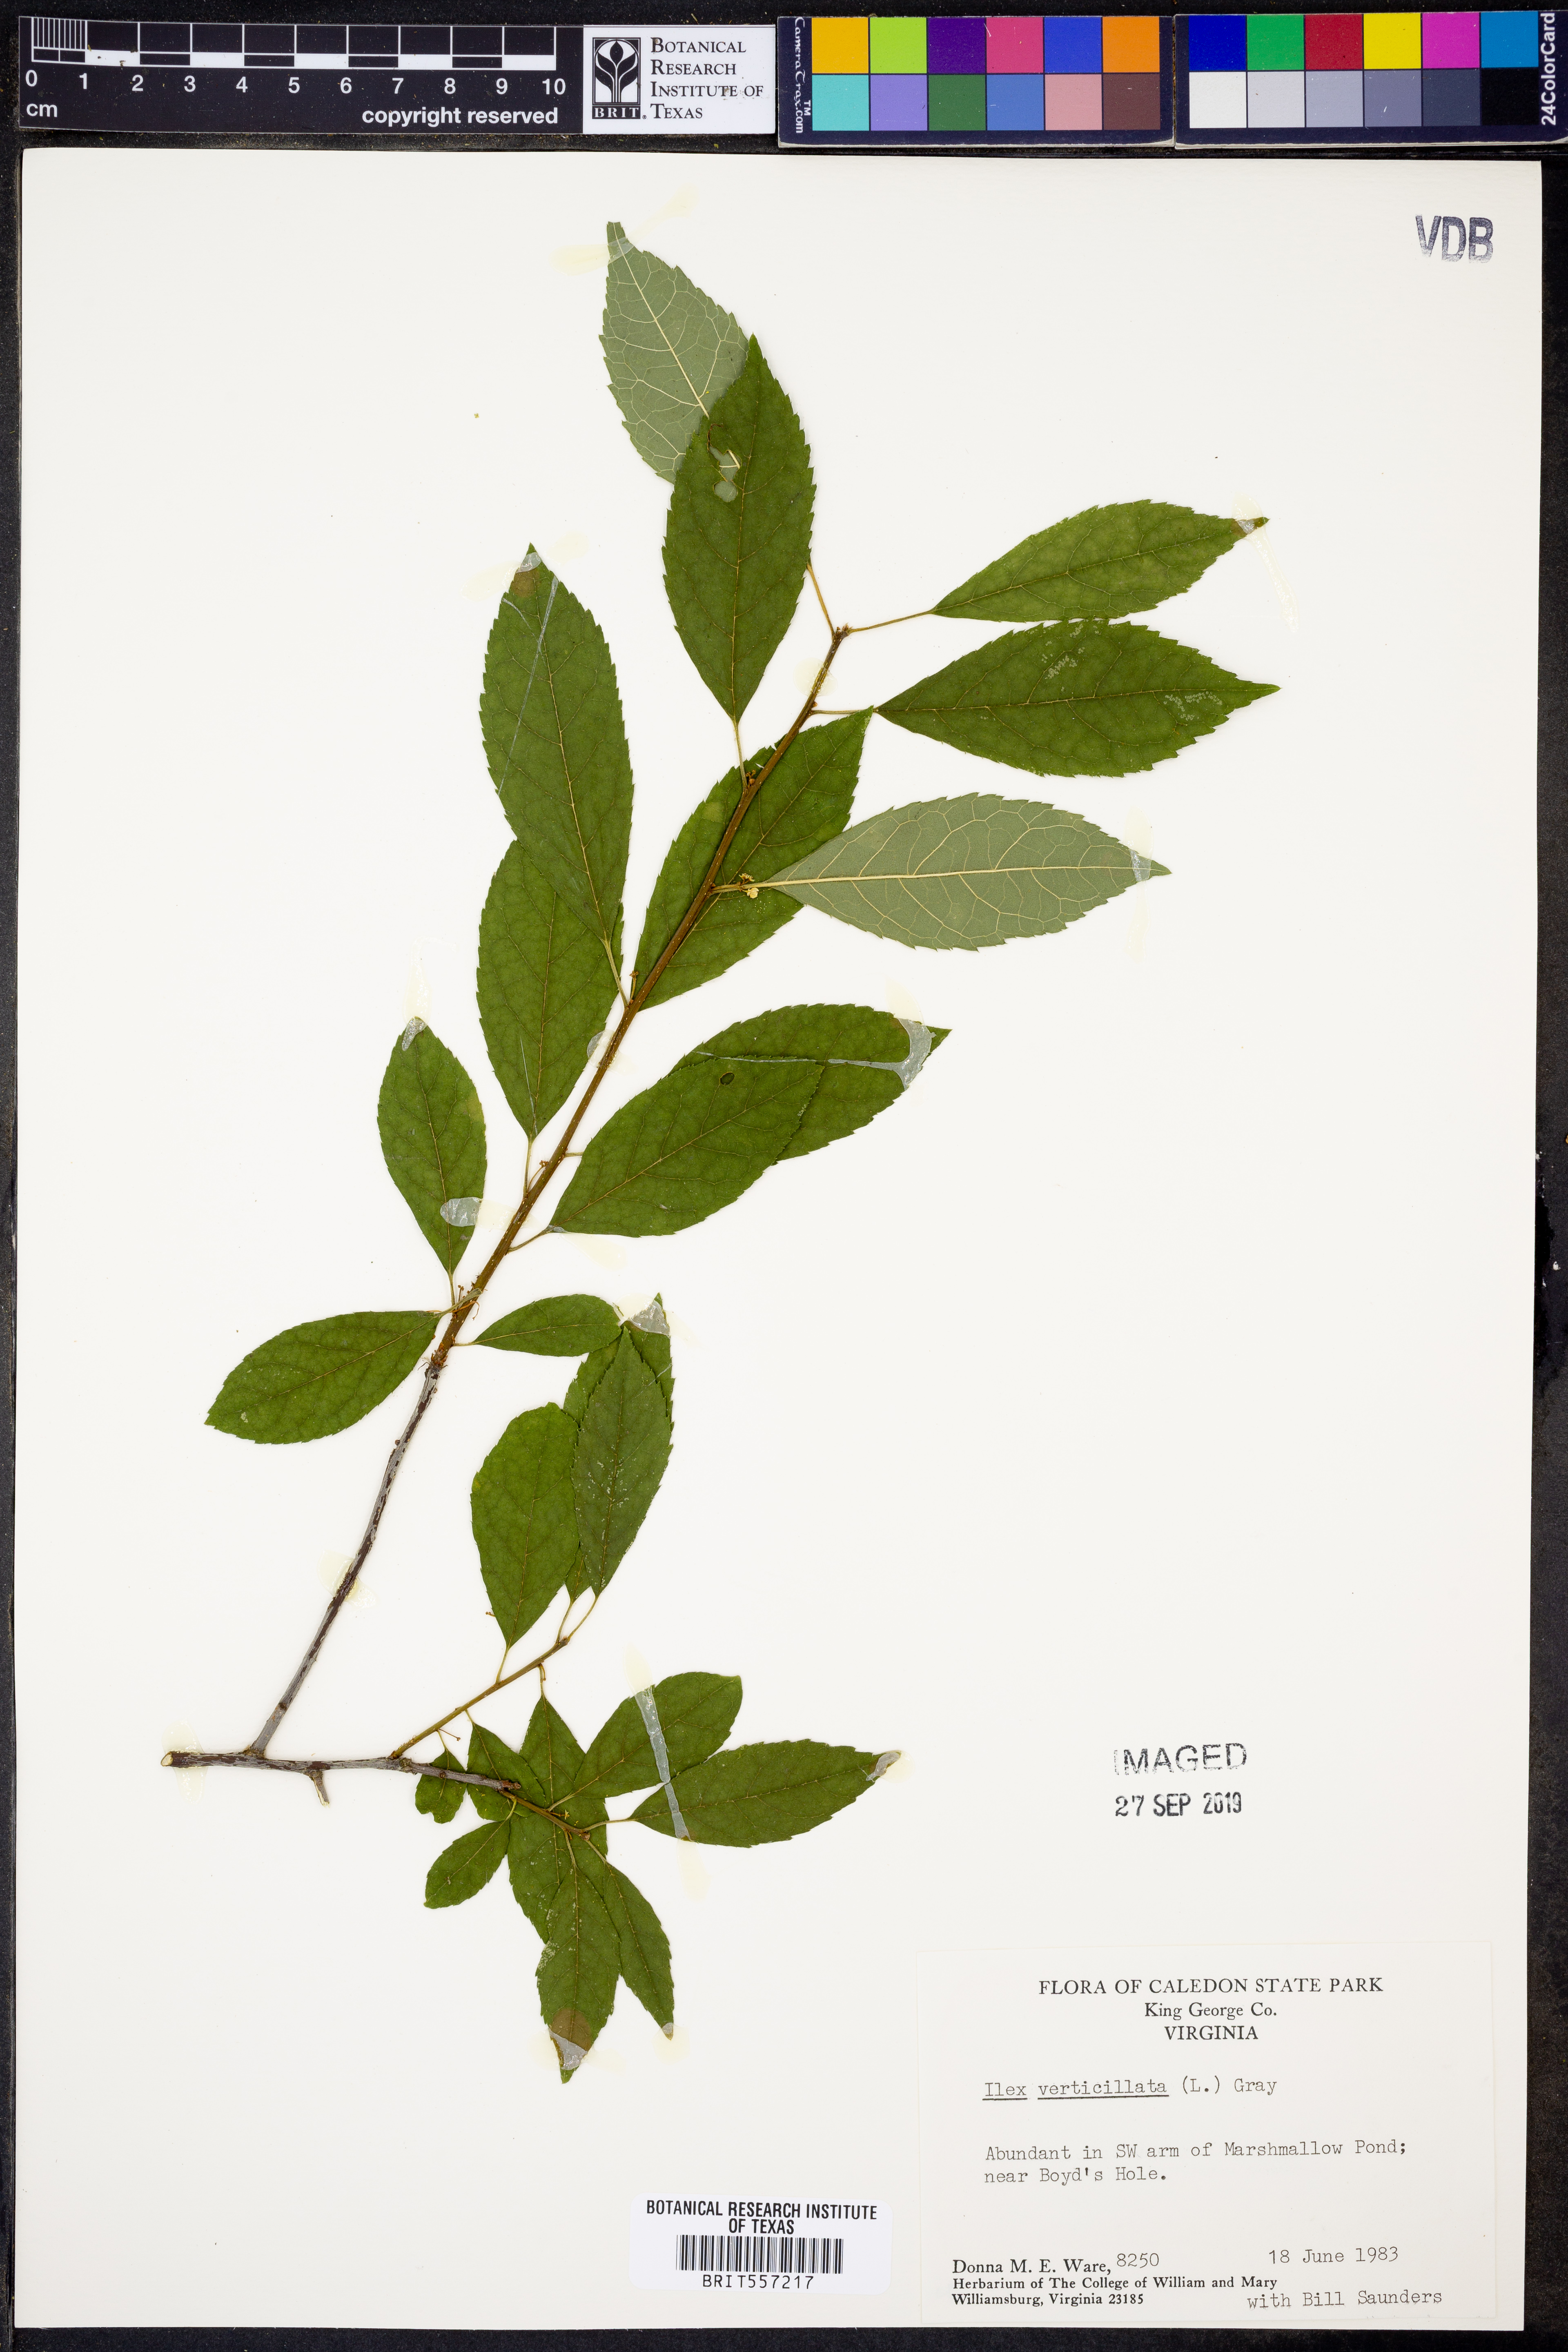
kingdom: Plantae
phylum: Tracheophyta
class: Magnoliopsida
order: Aquifoliales
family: Aquifoliaceae
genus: Ilex
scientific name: Ilex verticillata
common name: Virginia winterberry
